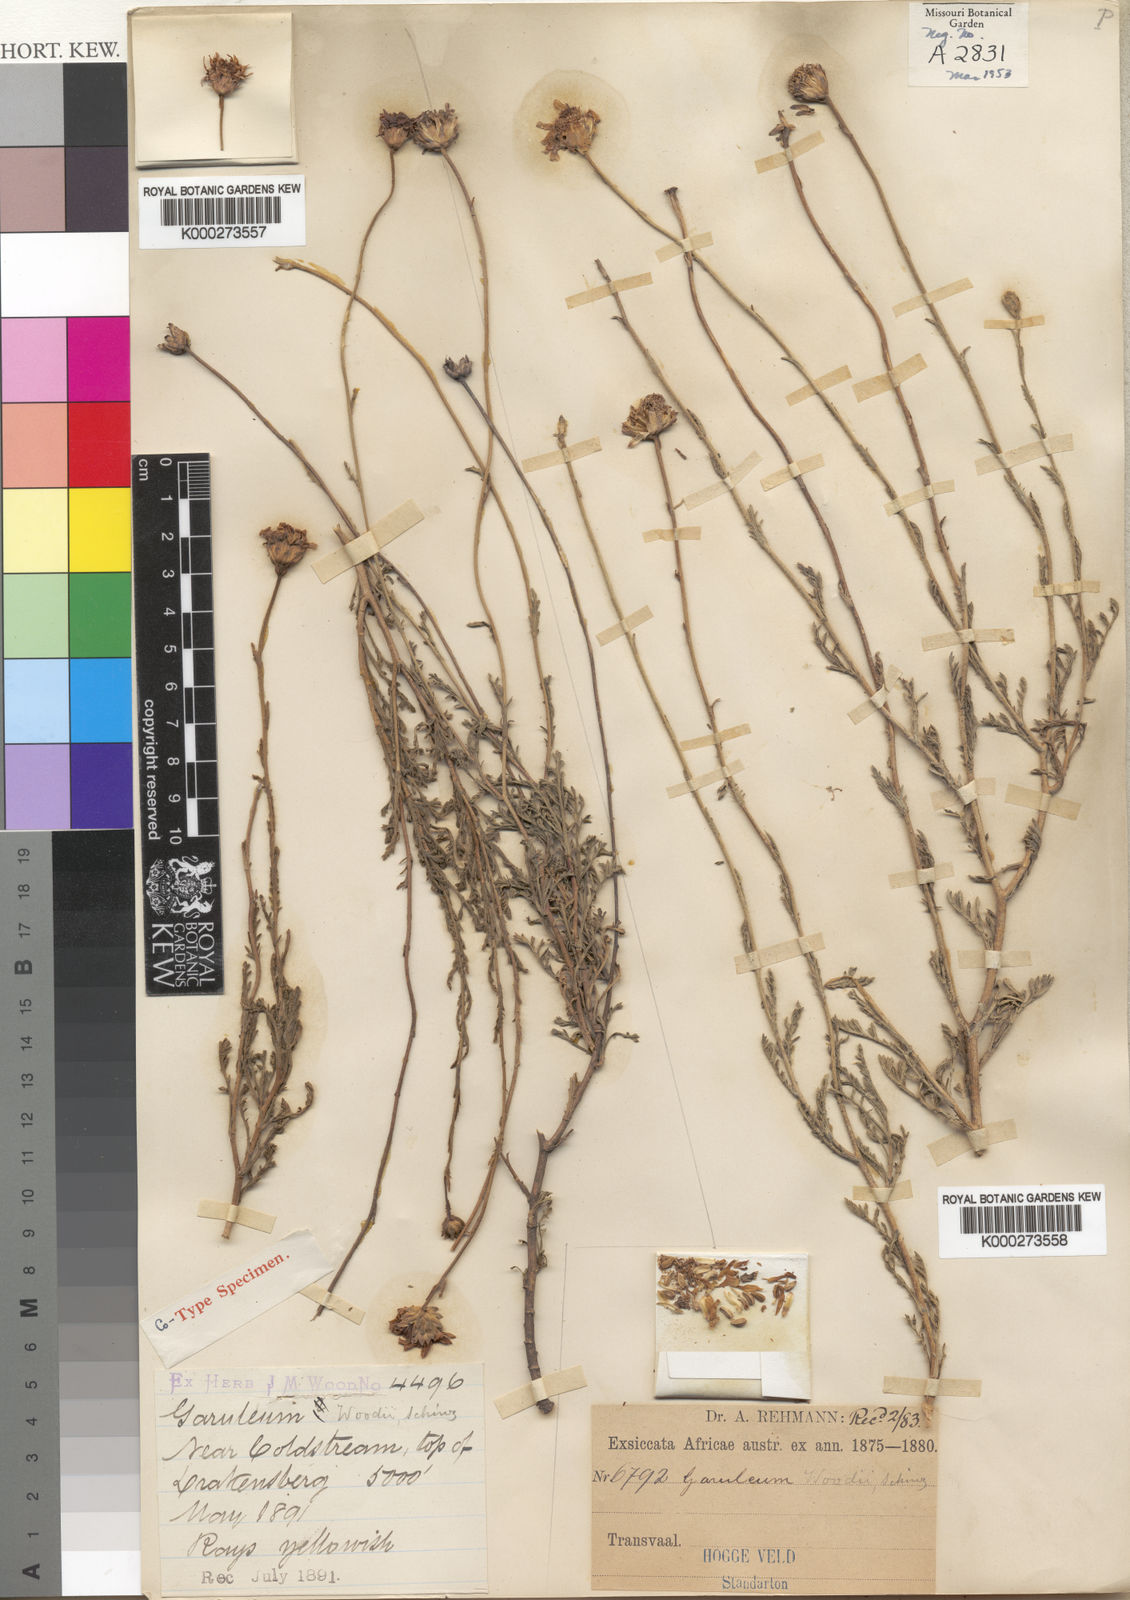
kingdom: Plantae
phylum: Tracheophyta
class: Magnoliopsida
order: Asterales
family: Asteraceae
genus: Garuleum
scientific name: Garuleum woodii
